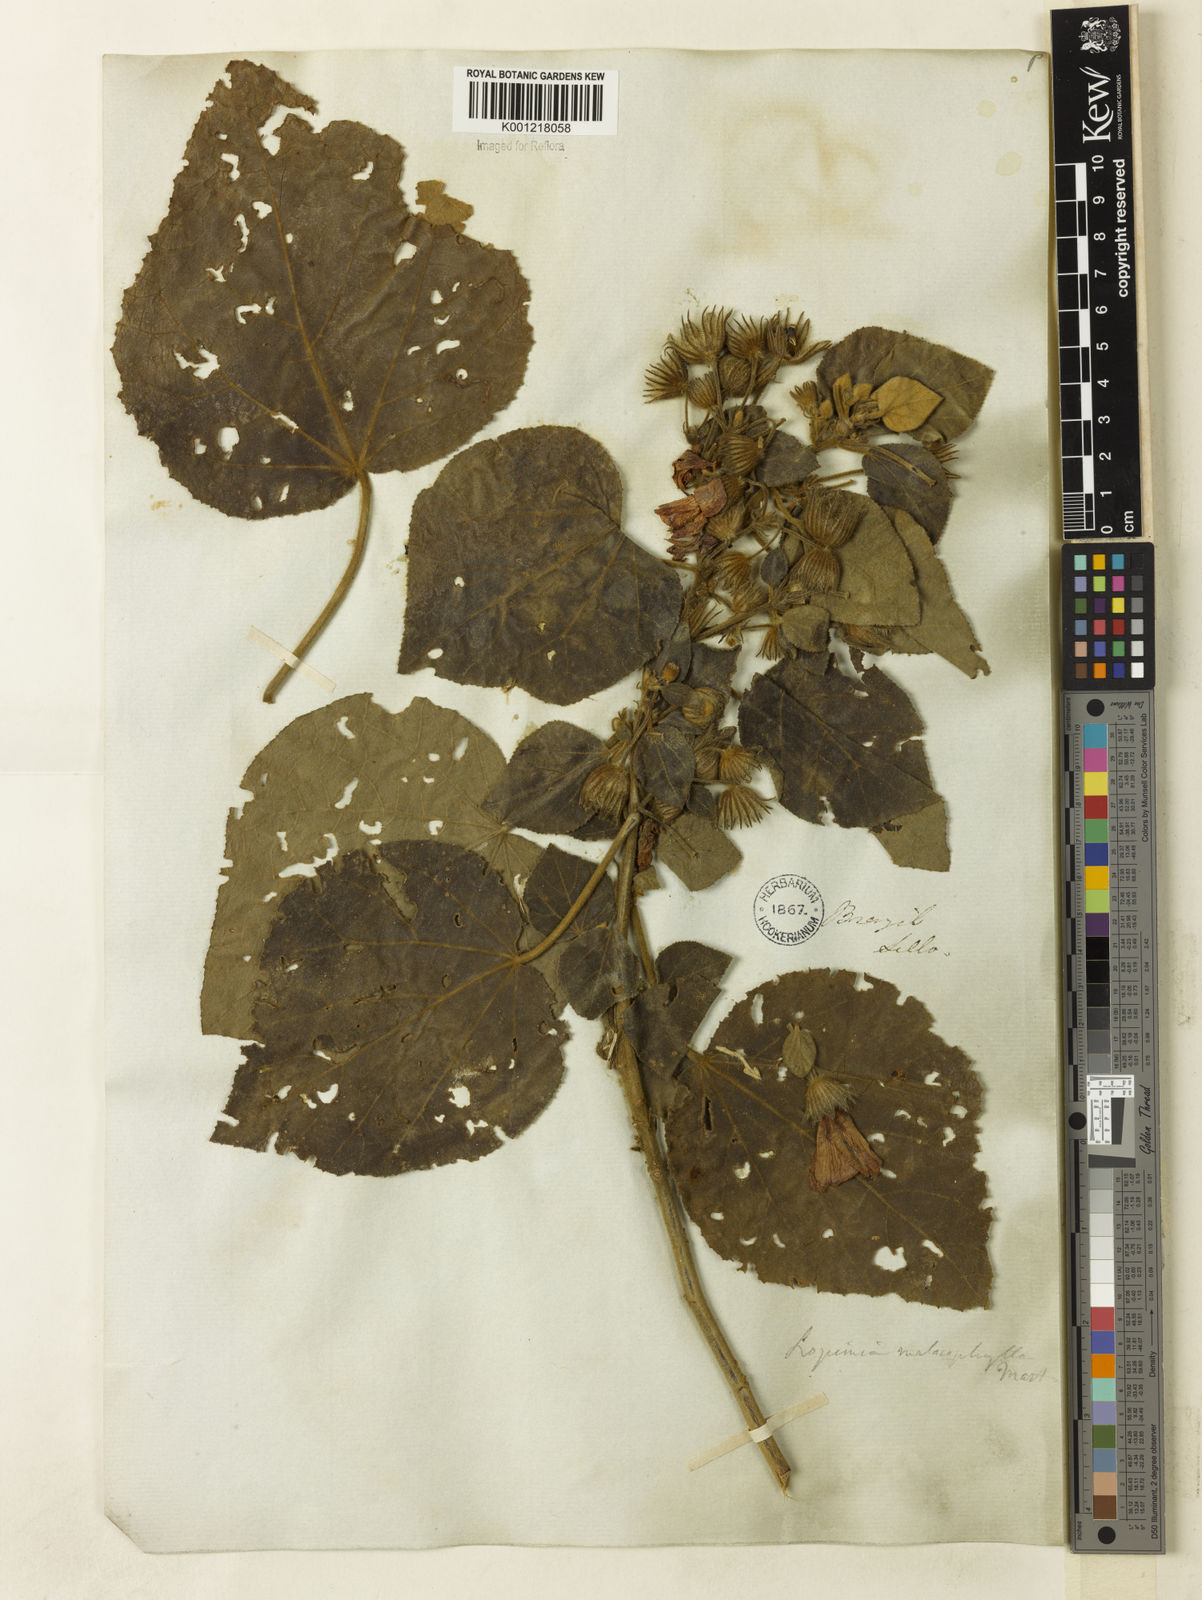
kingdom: Plantae
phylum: Tracheophyta
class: Magnoliopsida
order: Malvales
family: Malvaceae
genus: Pavonia
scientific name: Pavonia malacophylla
